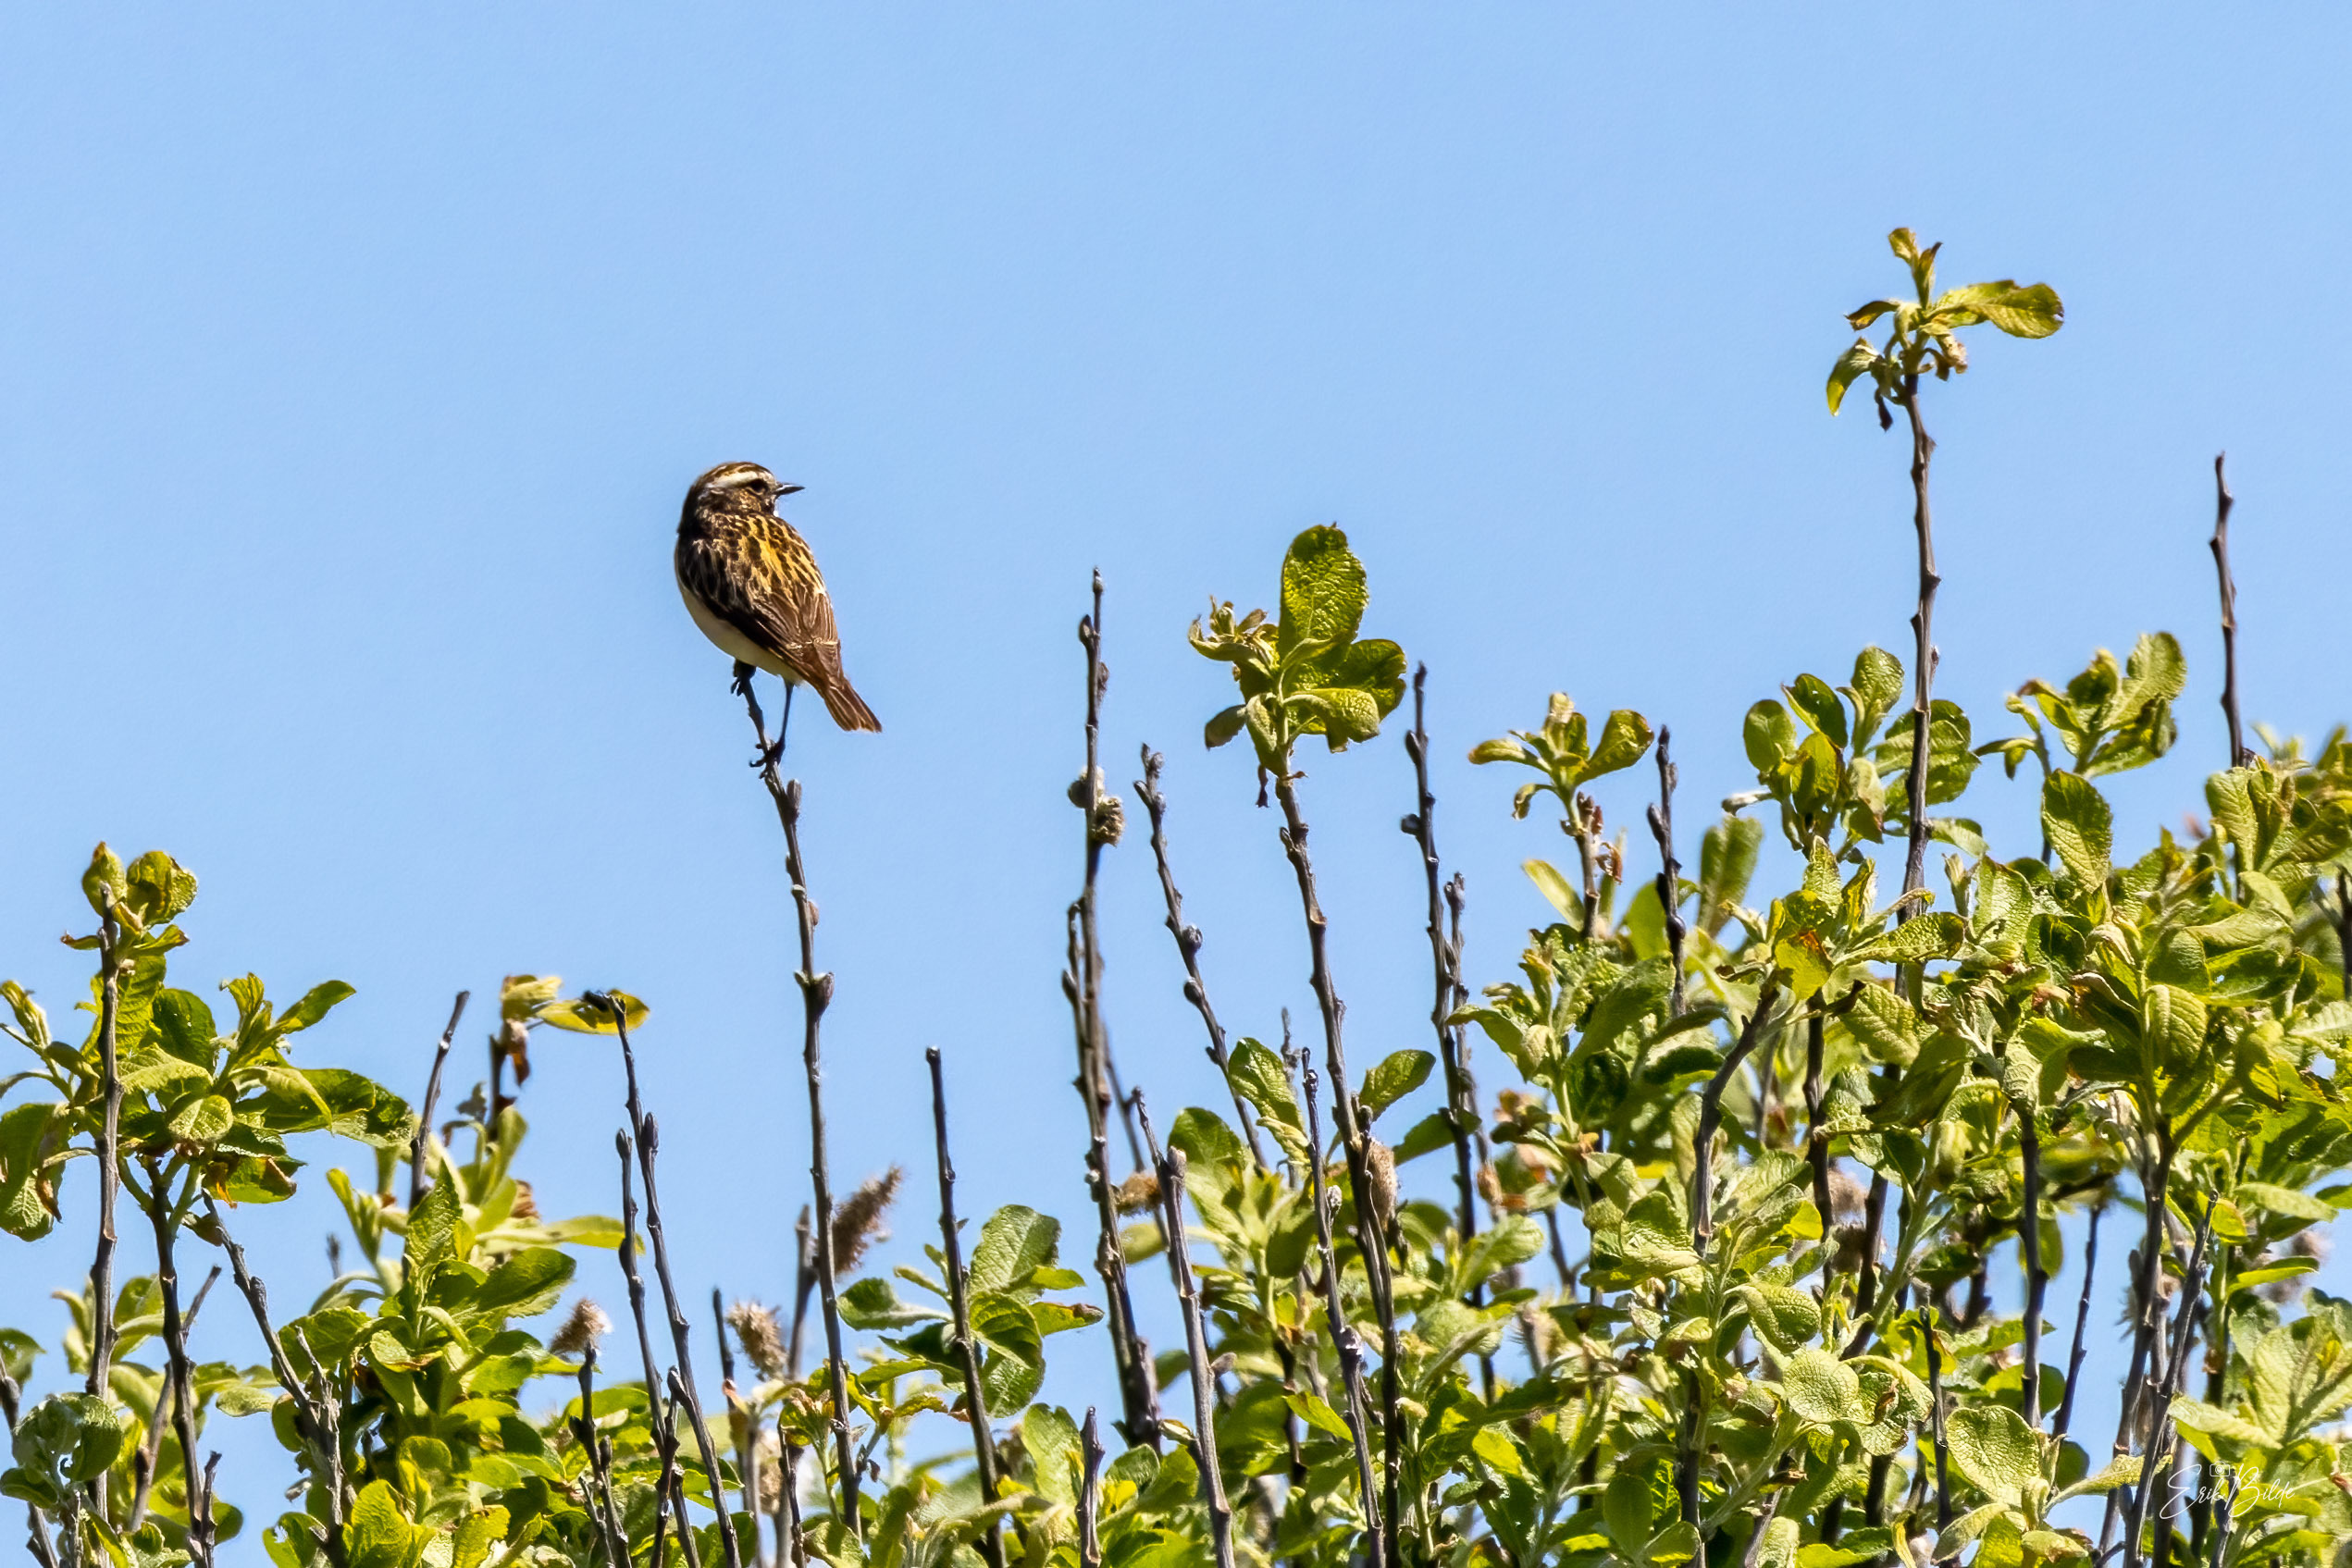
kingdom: Animalia
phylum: Chordata
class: Aves
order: Passeriformes
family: Muscicapidae
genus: Saxicola
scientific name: Saxicola rubetra
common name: Bynkefugl
